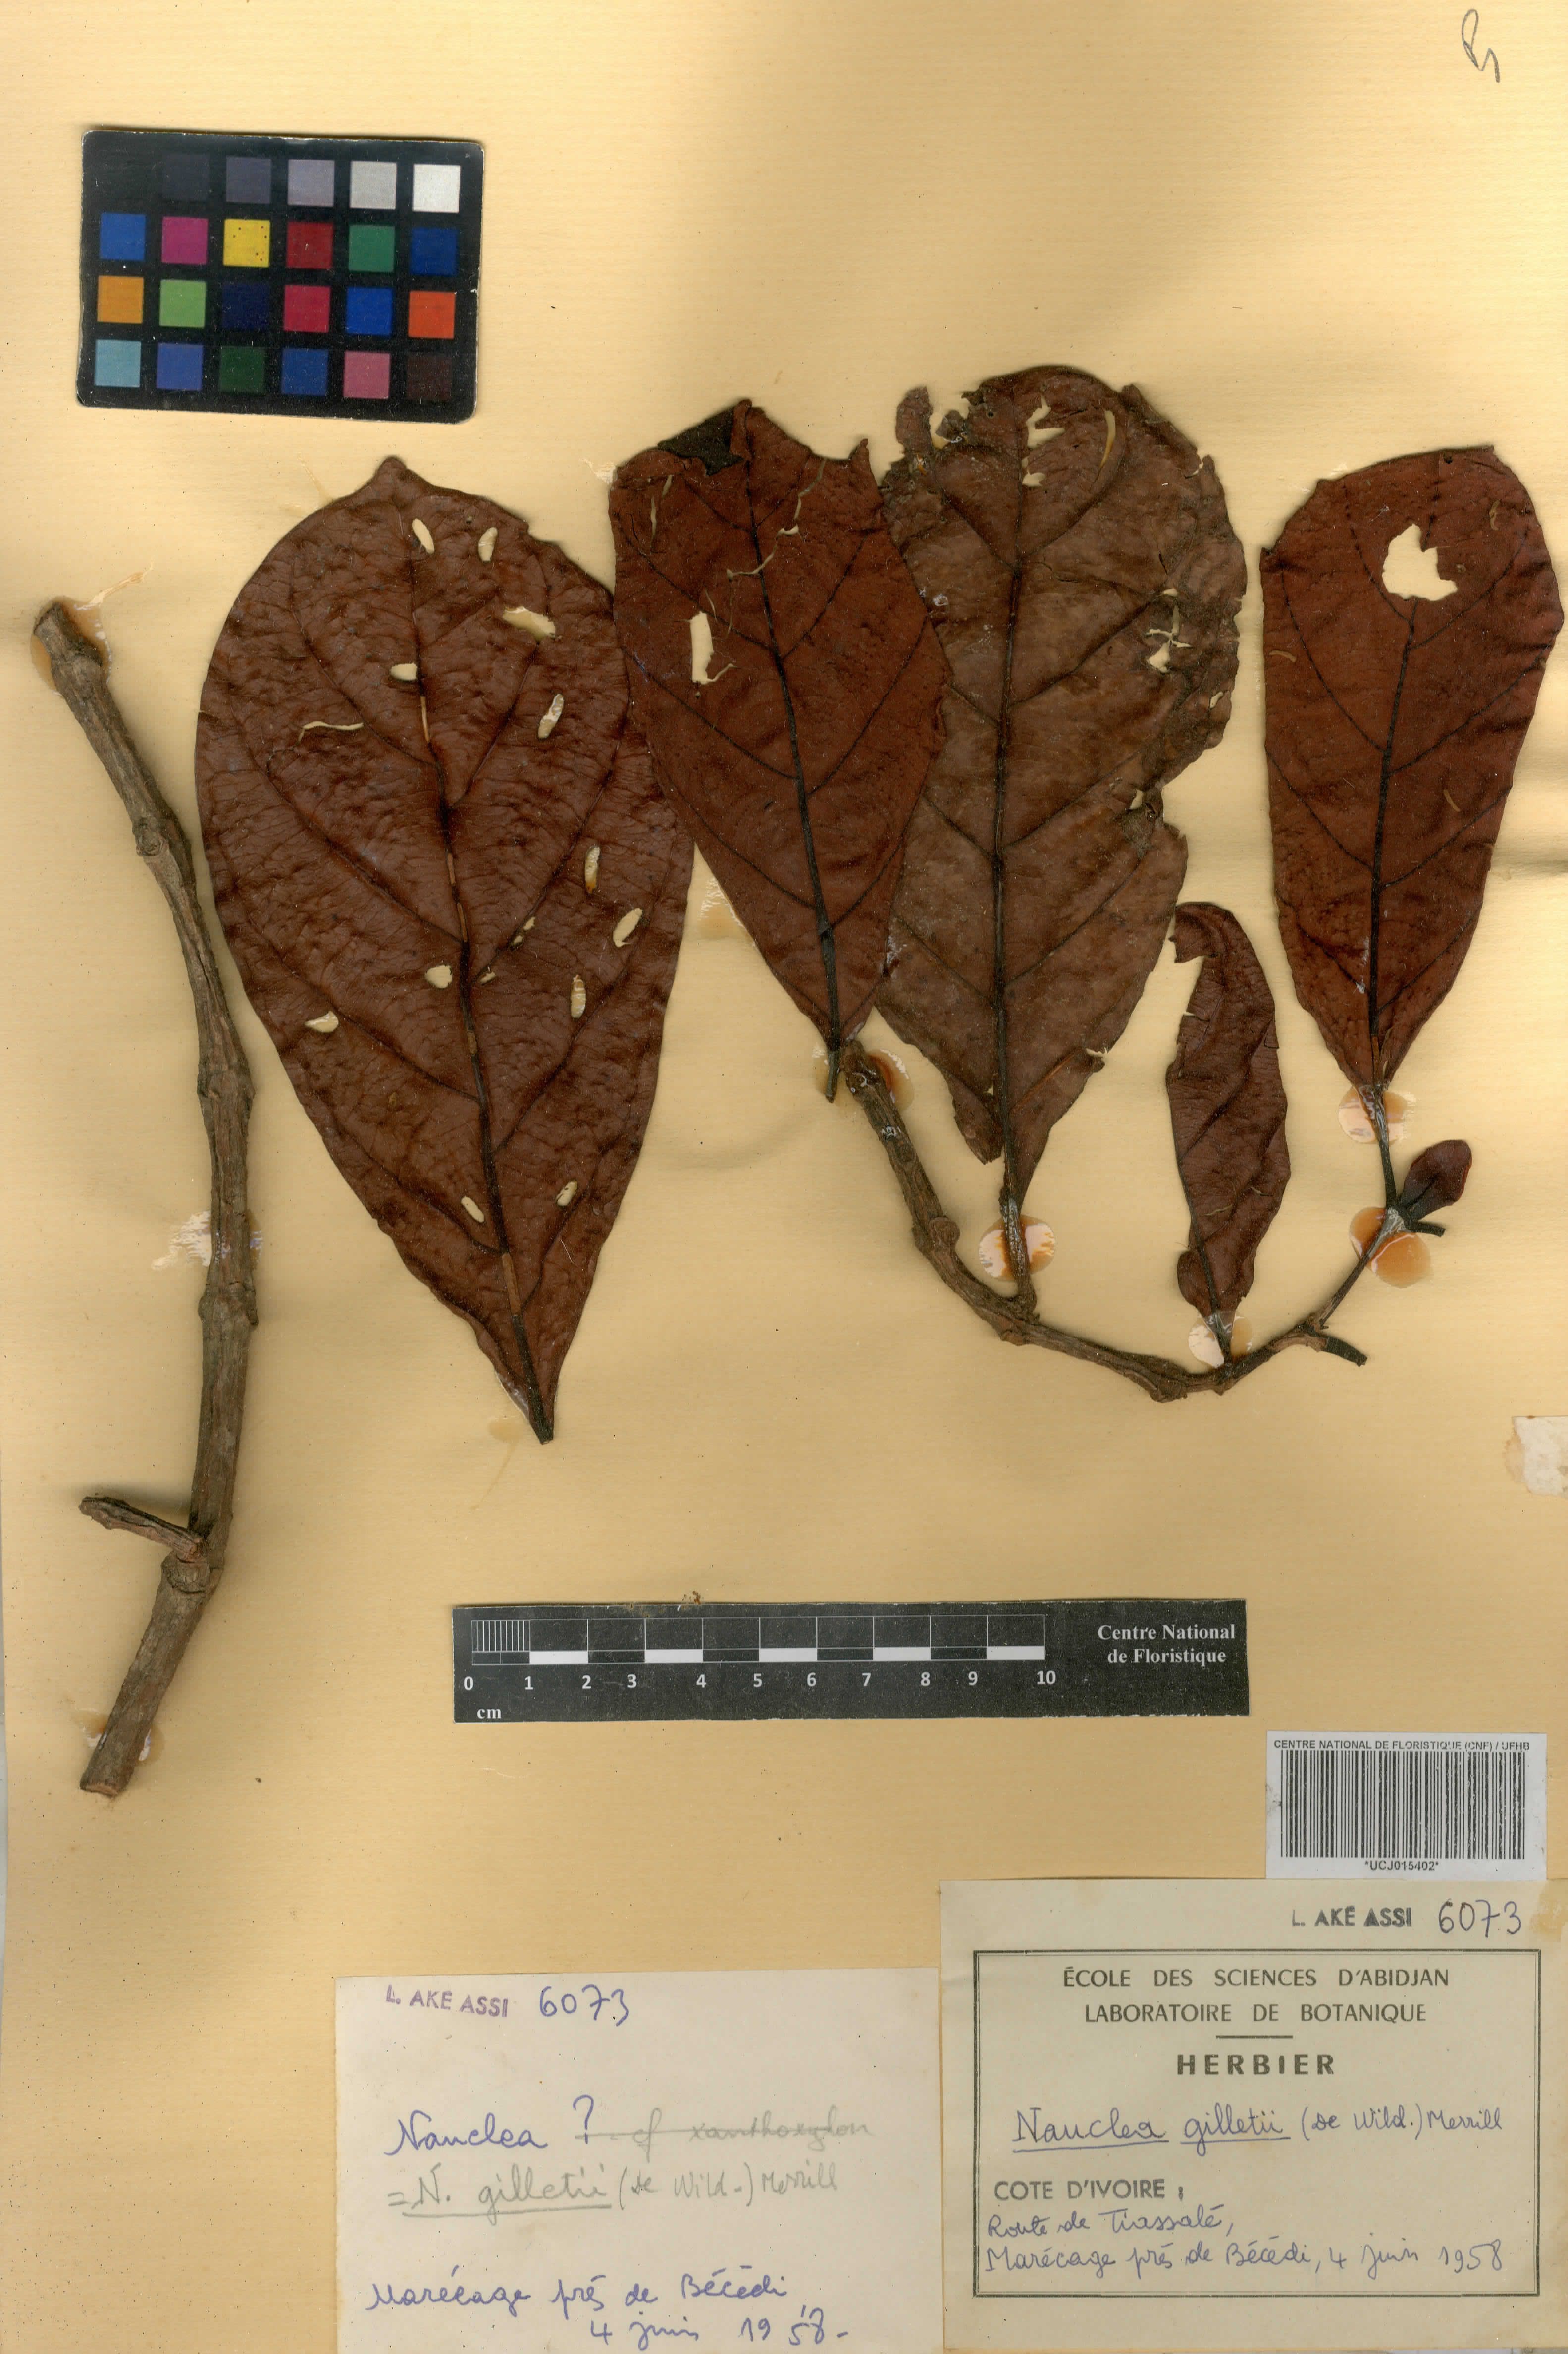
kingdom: Plantae
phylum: Tracheophyta
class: Magnoliopsida
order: Gentianales
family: Rubiaceae
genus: Nauclea
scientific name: Nauclea gilletii
